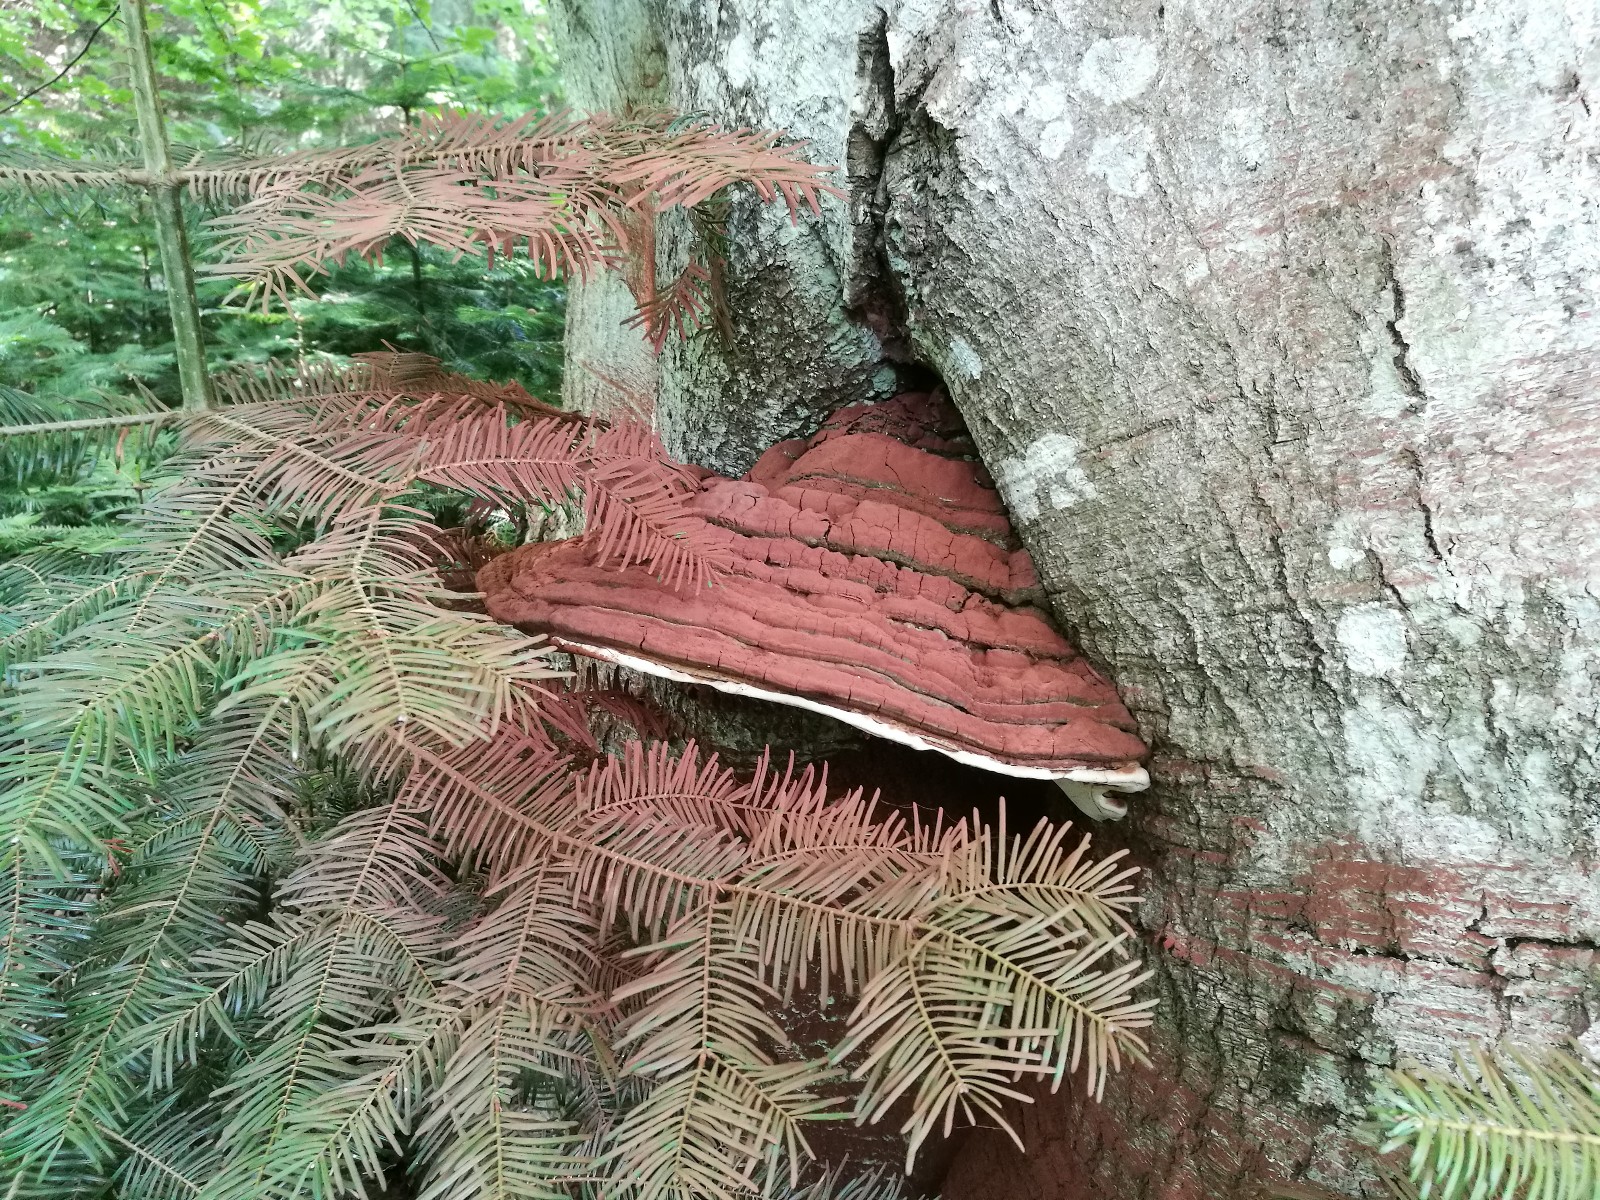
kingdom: Fungi
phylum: Basidiomycota
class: Agaricomycetes
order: Polyporales
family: Polyporaceae
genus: Ganoderma
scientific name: Ganoderma adspersum
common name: grov lakporesvamp
